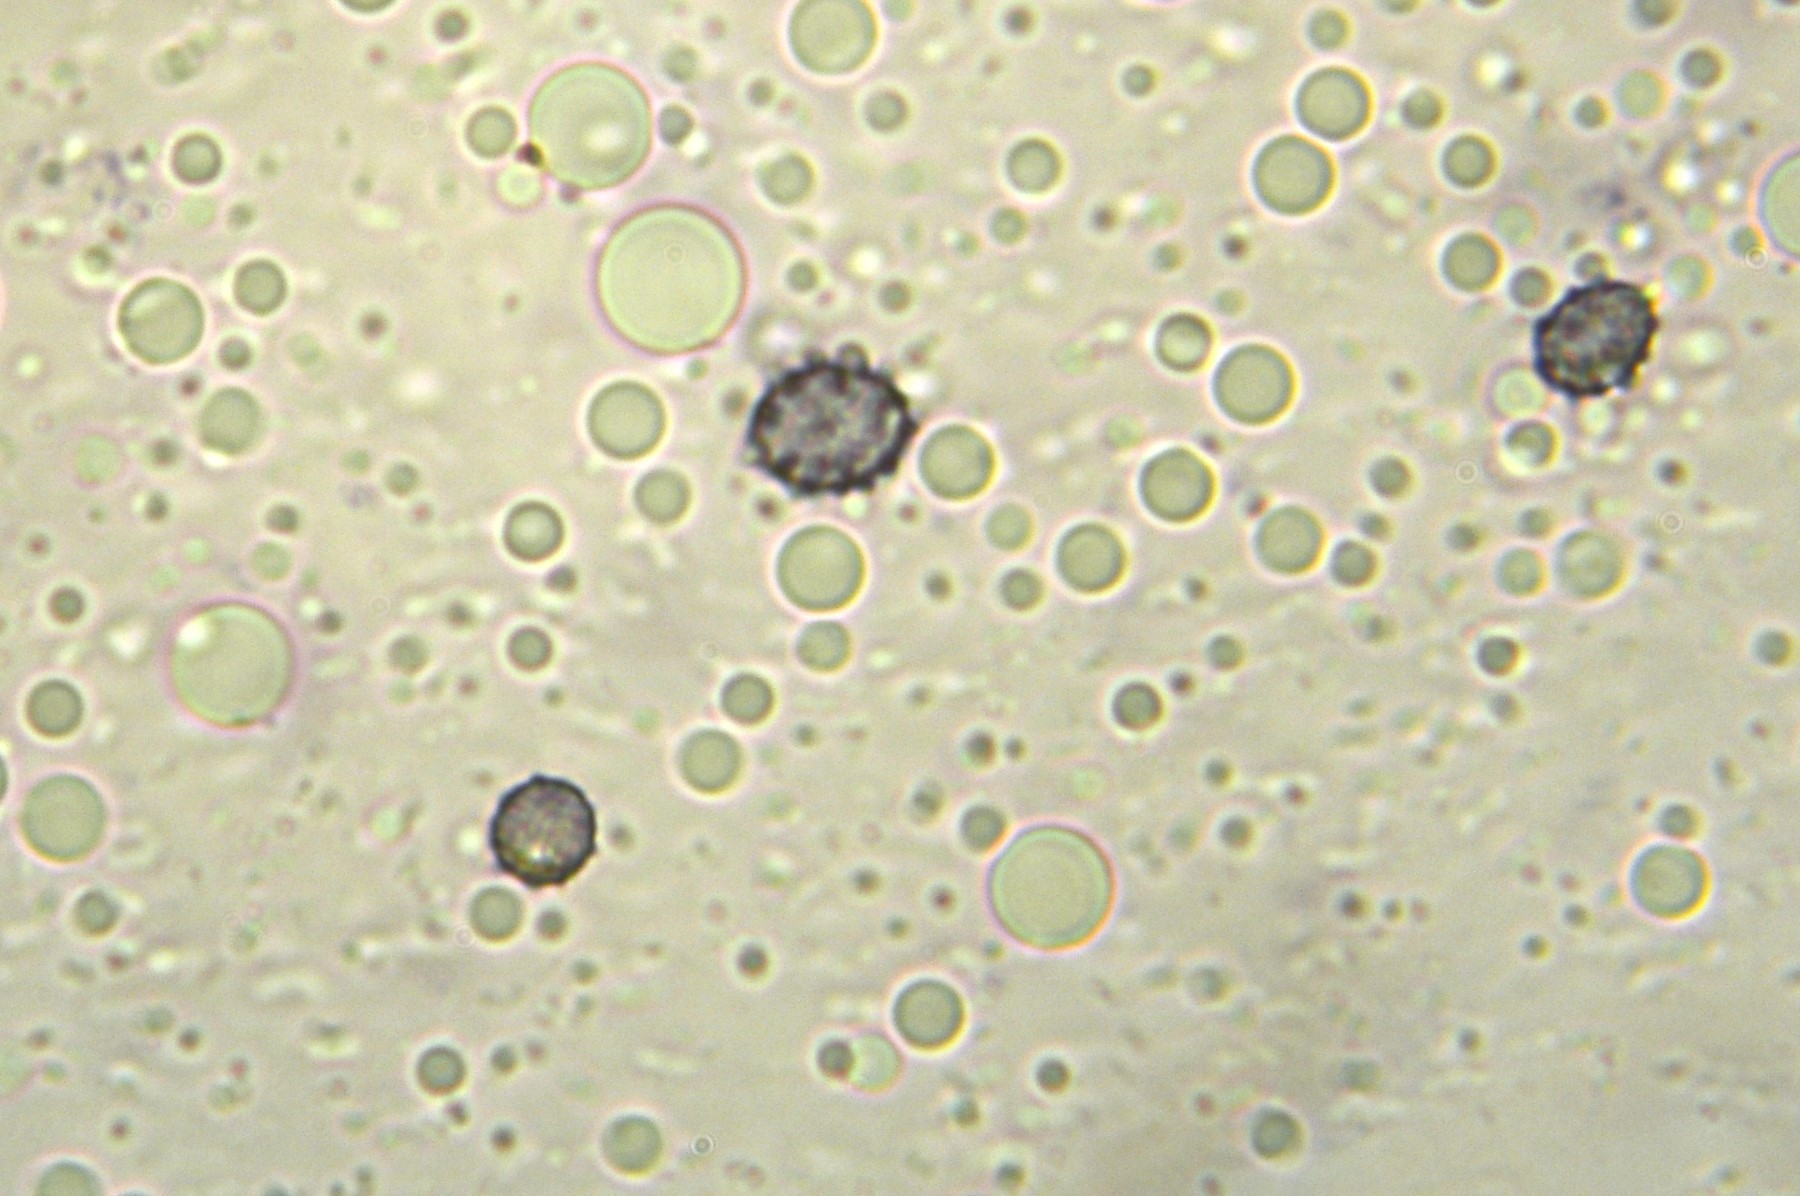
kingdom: Fungi
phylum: Basidiomycota
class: Agaricomycetes
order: Russulales
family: Russulaceae
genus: Russula
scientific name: Russula amoenolens
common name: skarp kam-skørhat
